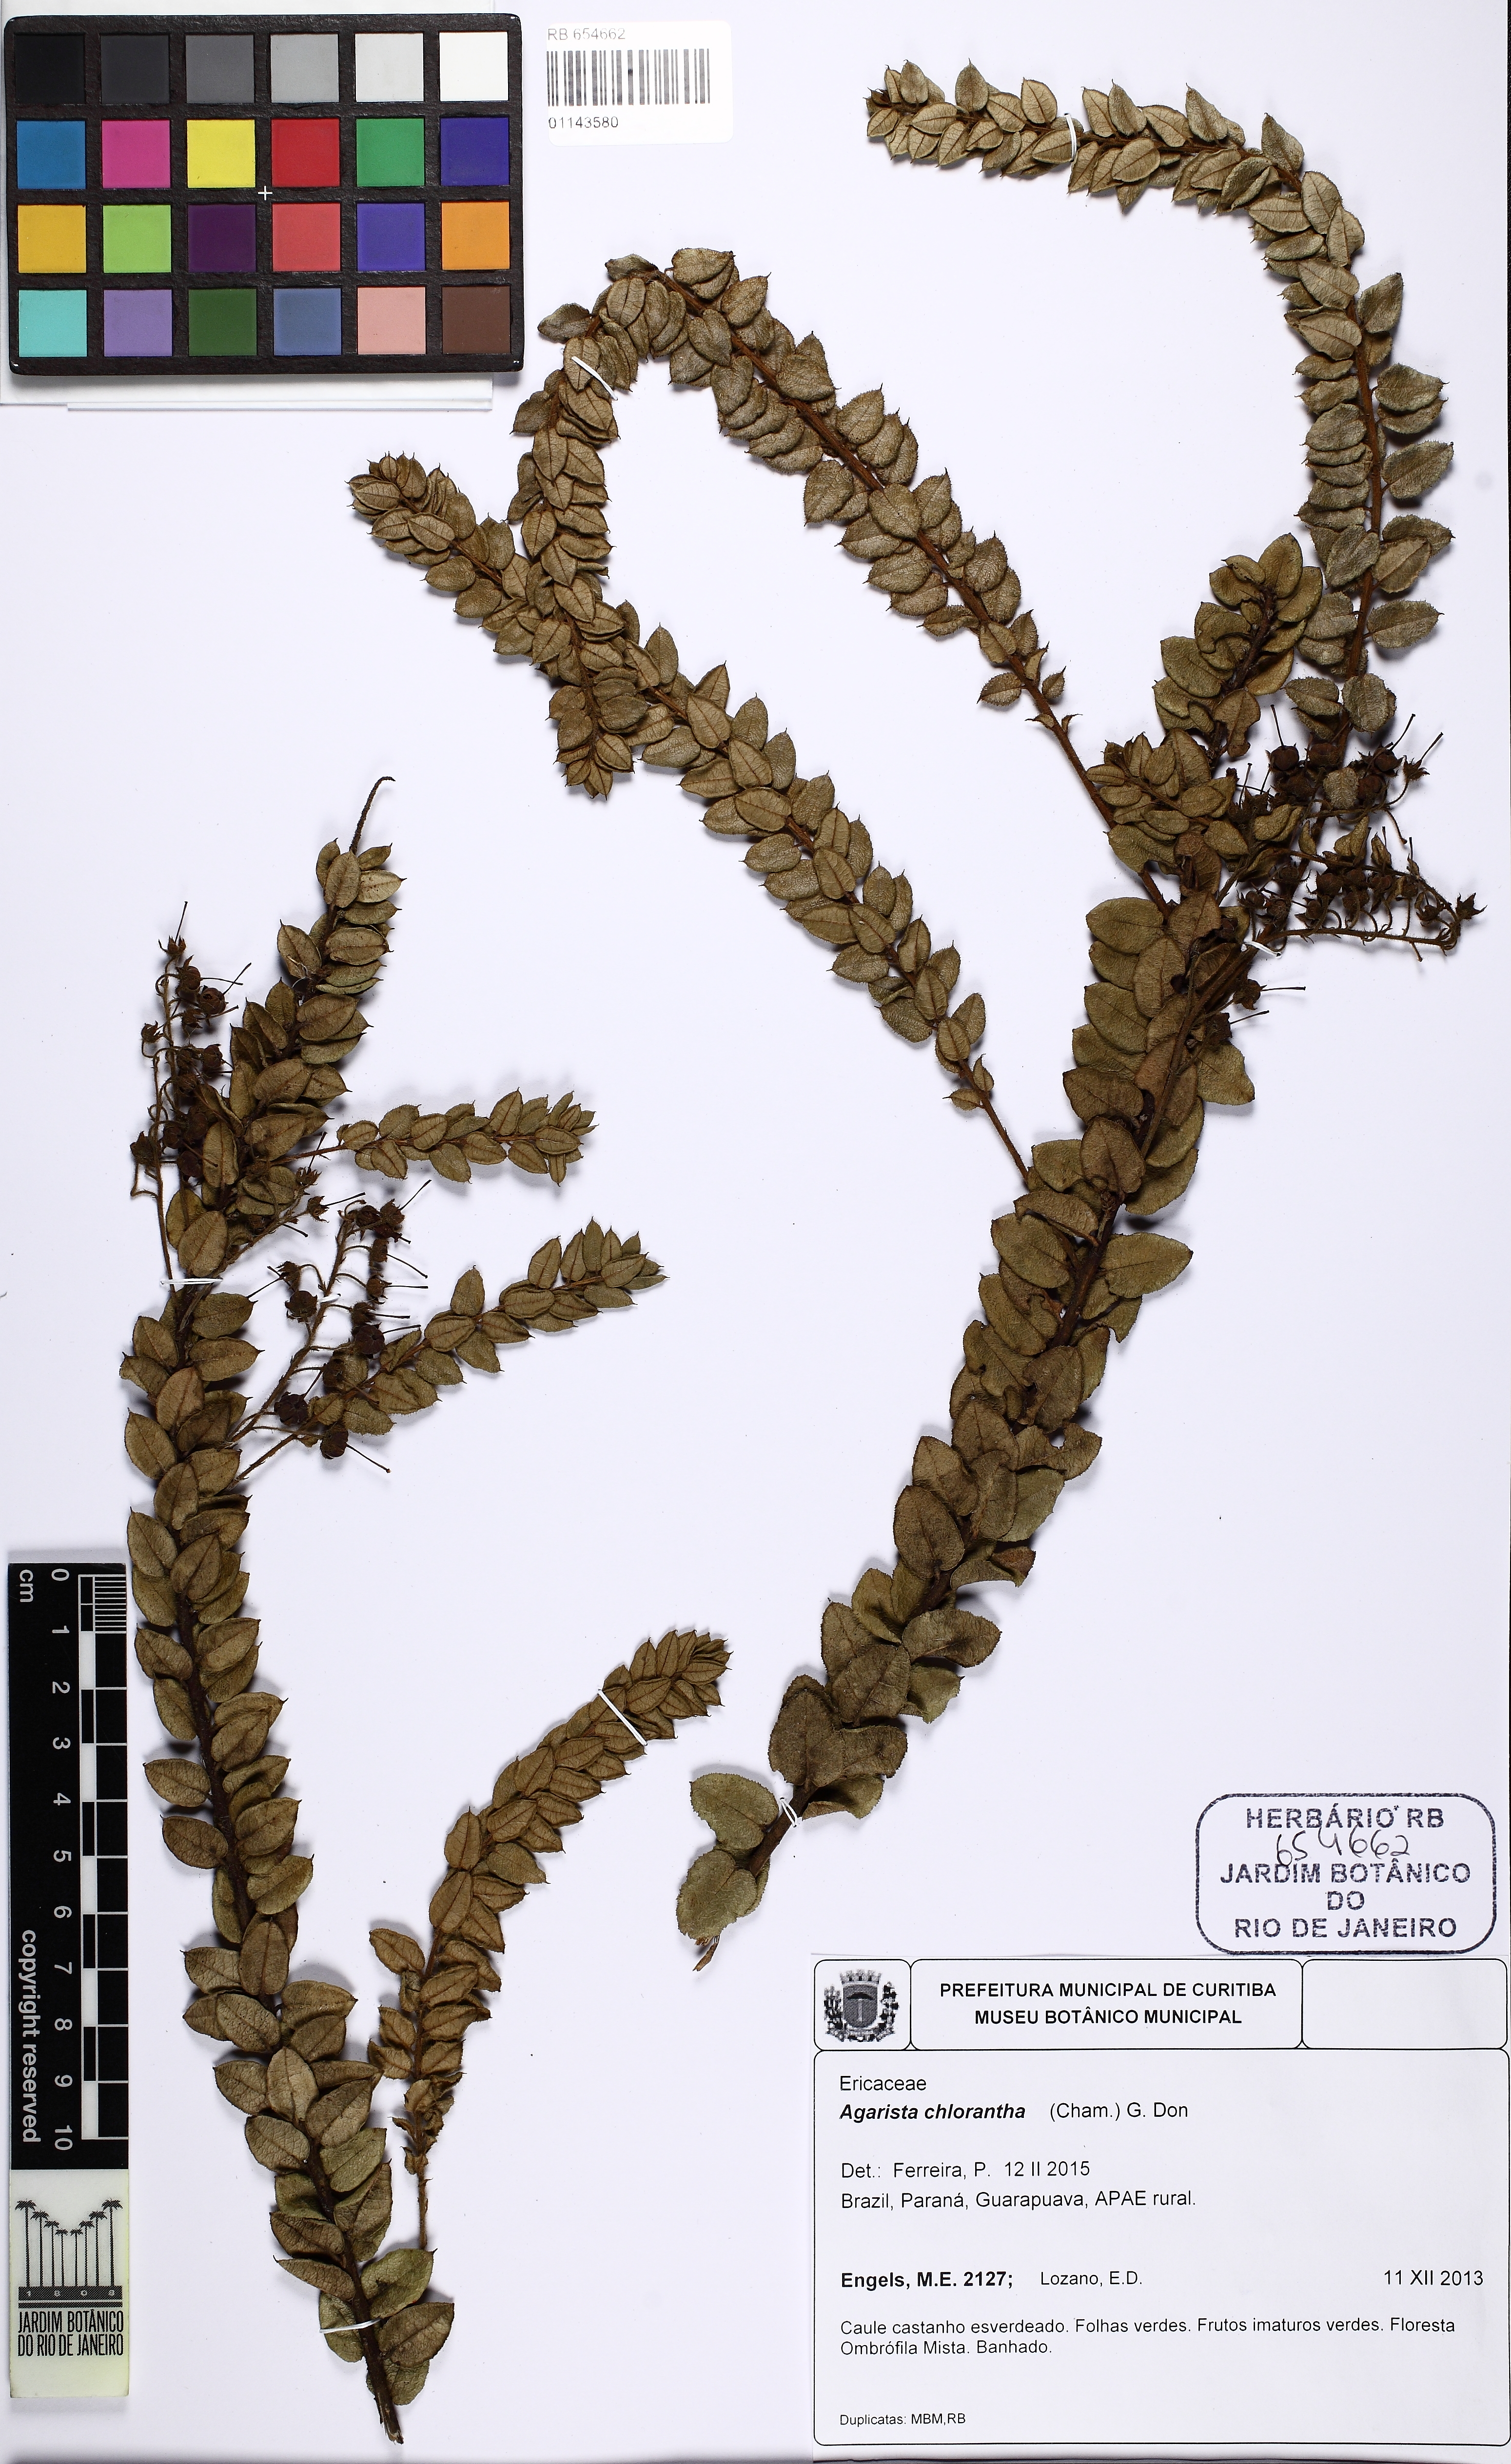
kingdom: Plantae
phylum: Tracheophyta
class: Magnoliopsida
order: Ericales
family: Ericaceae
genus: Agarista
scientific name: Agarista chlorantha
